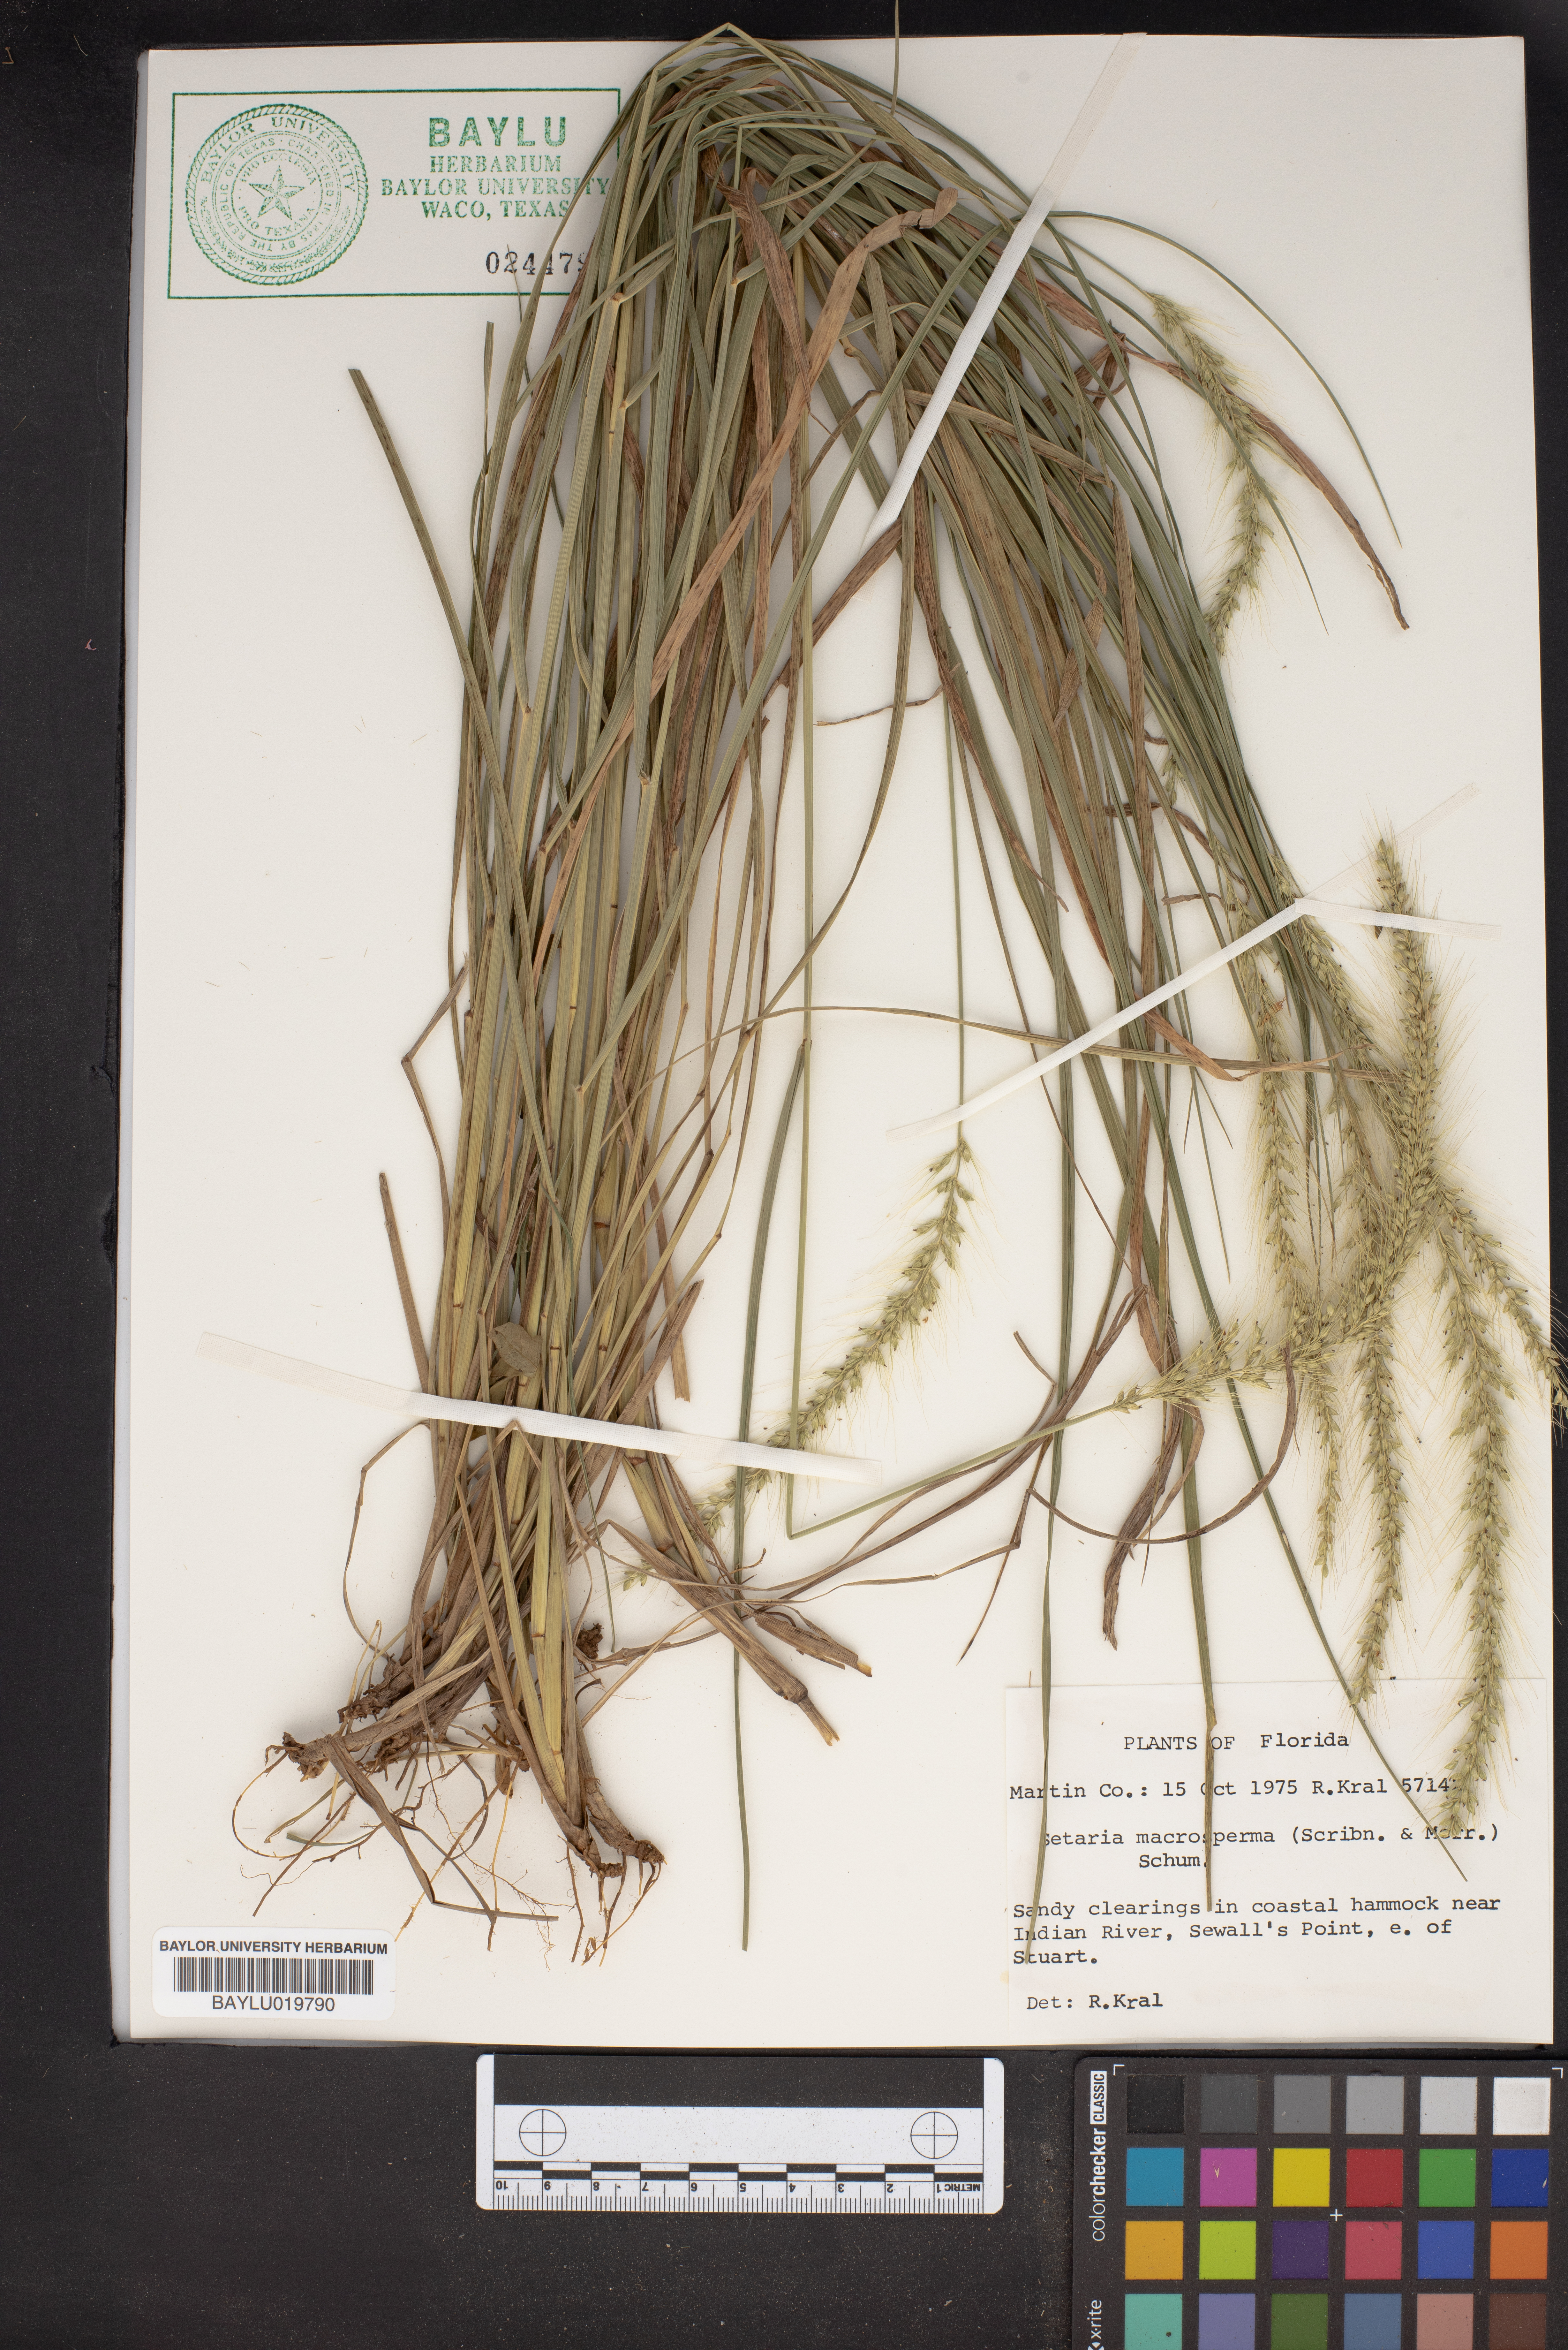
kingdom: Plantae
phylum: Tracheophyta
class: Liliopsida
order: Poales
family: Poaceae
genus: Setaria
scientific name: Setaria macrosperma
